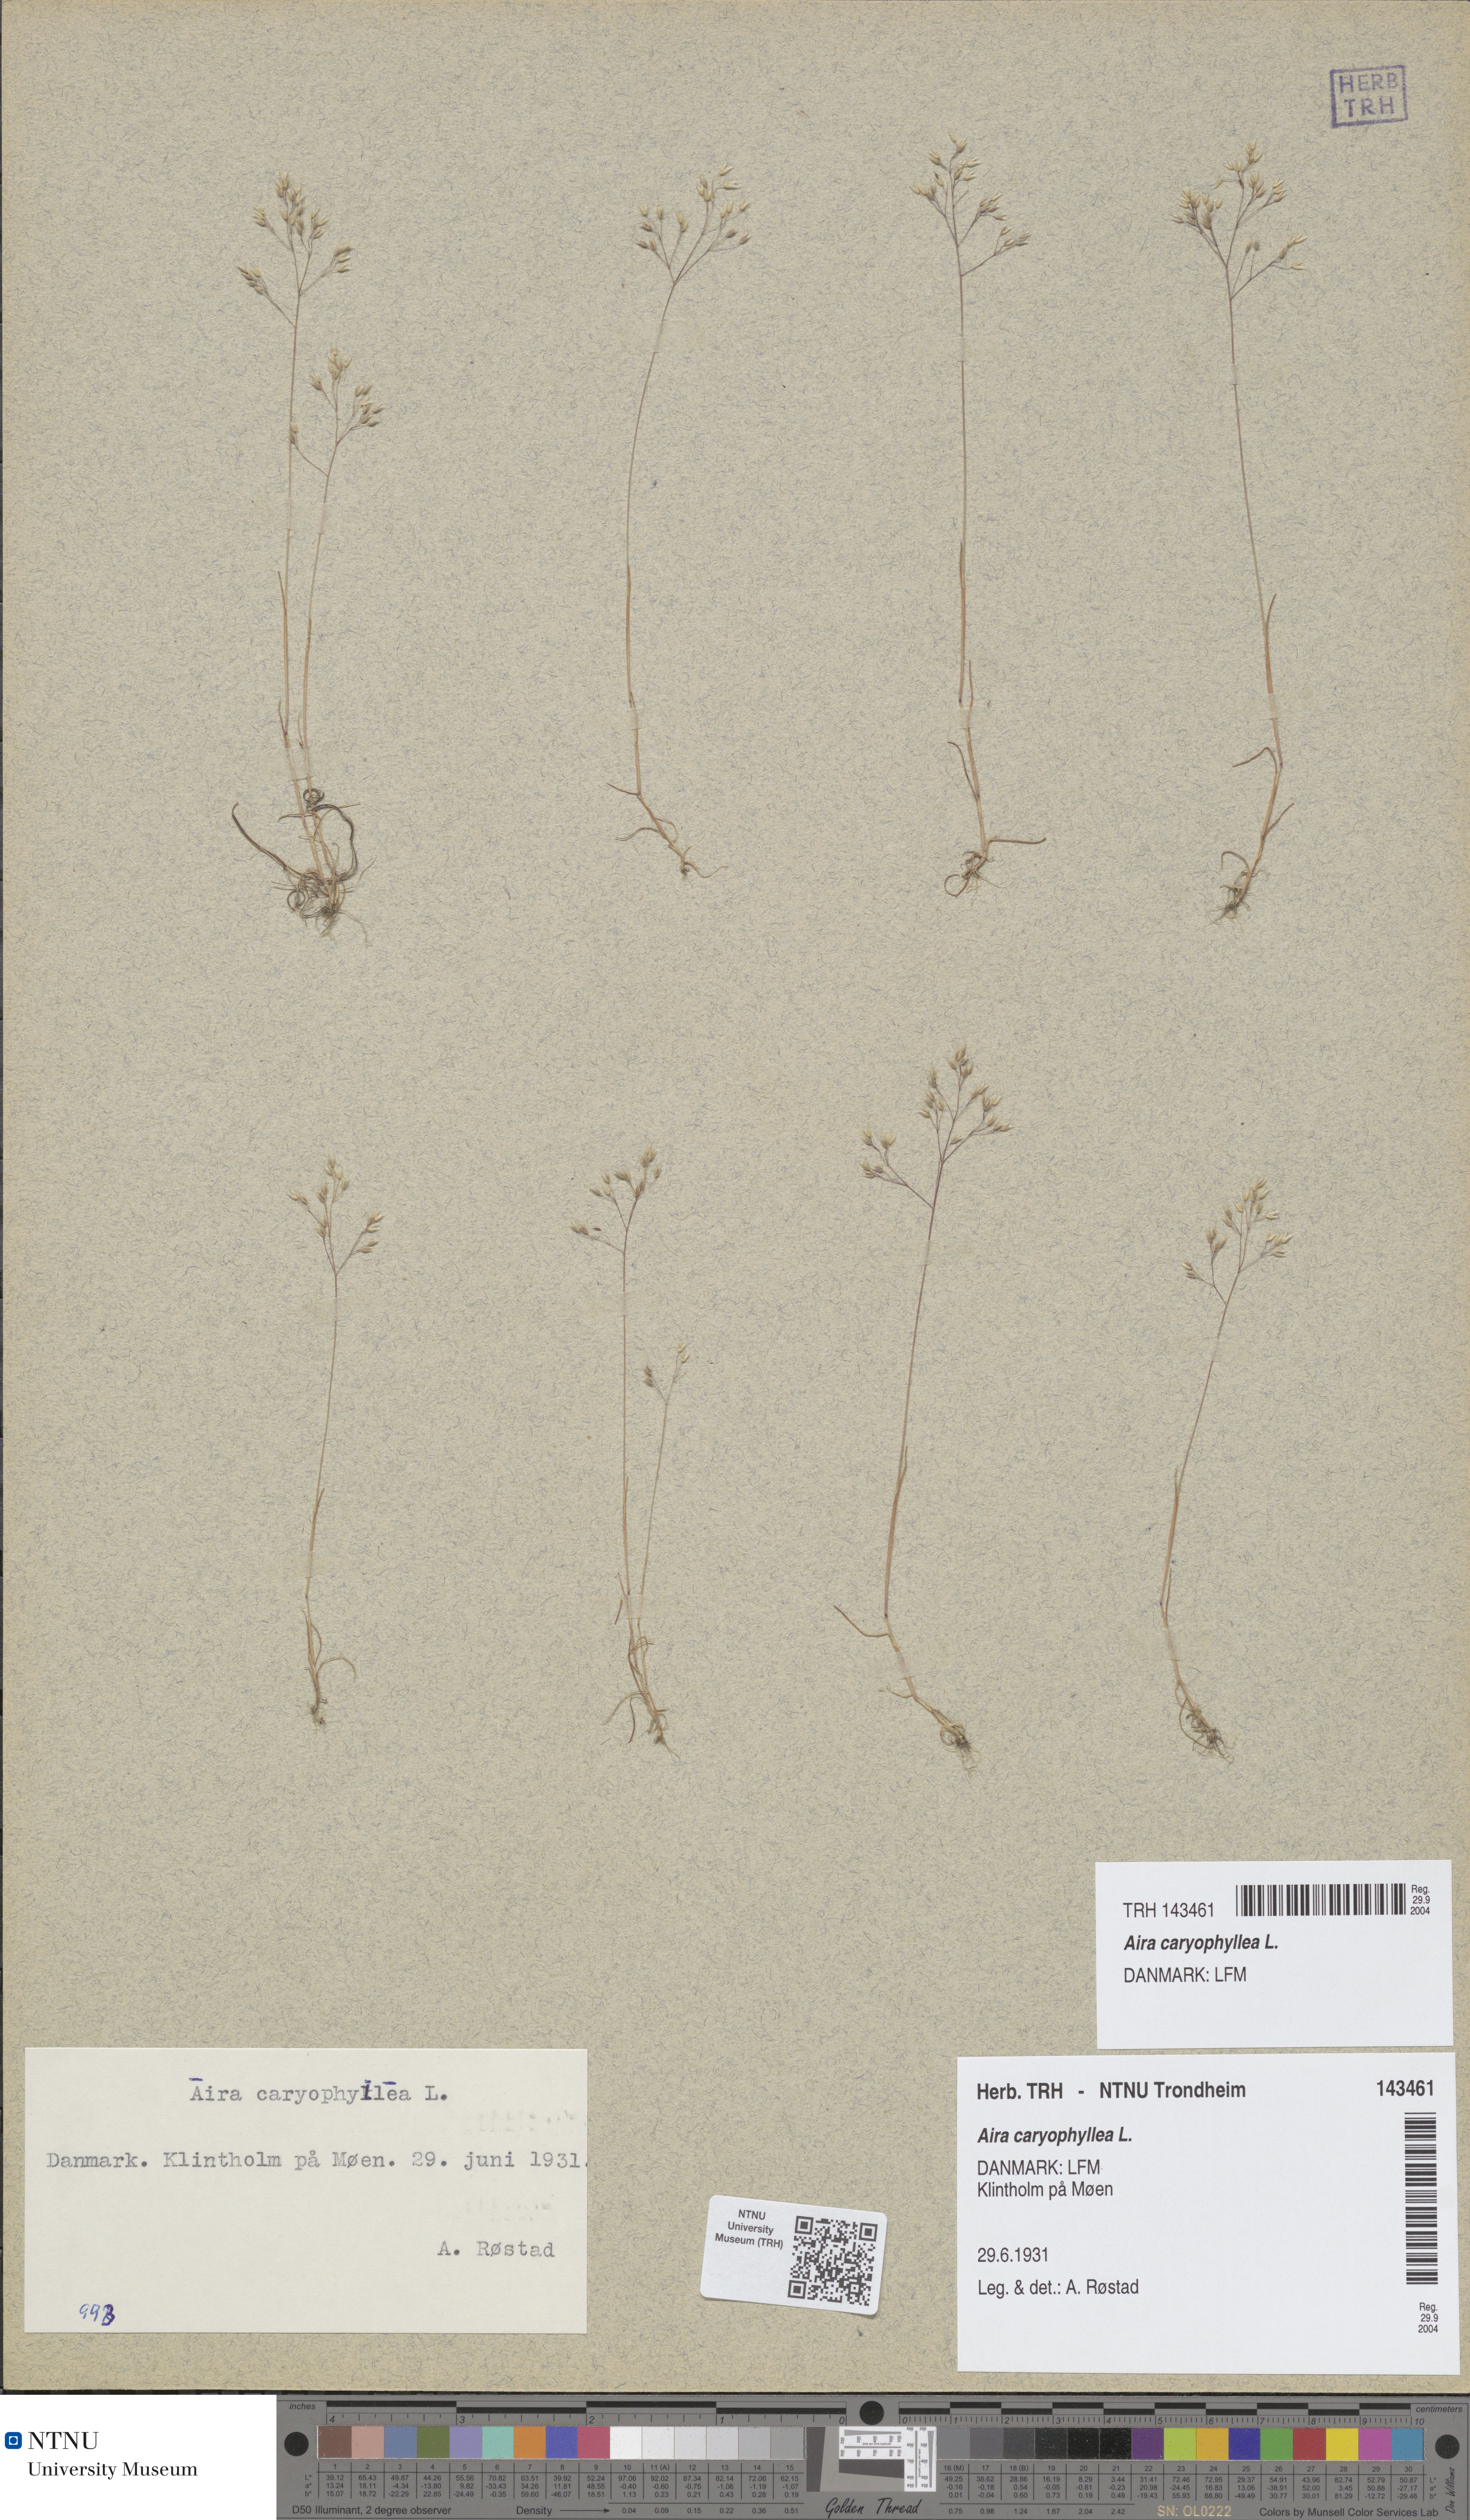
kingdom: Plantae
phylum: Tracheophyta
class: Liliopsida
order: Poales
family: Poaceae
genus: Aira
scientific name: Aira caryophyllea
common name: Silver hairgrass
